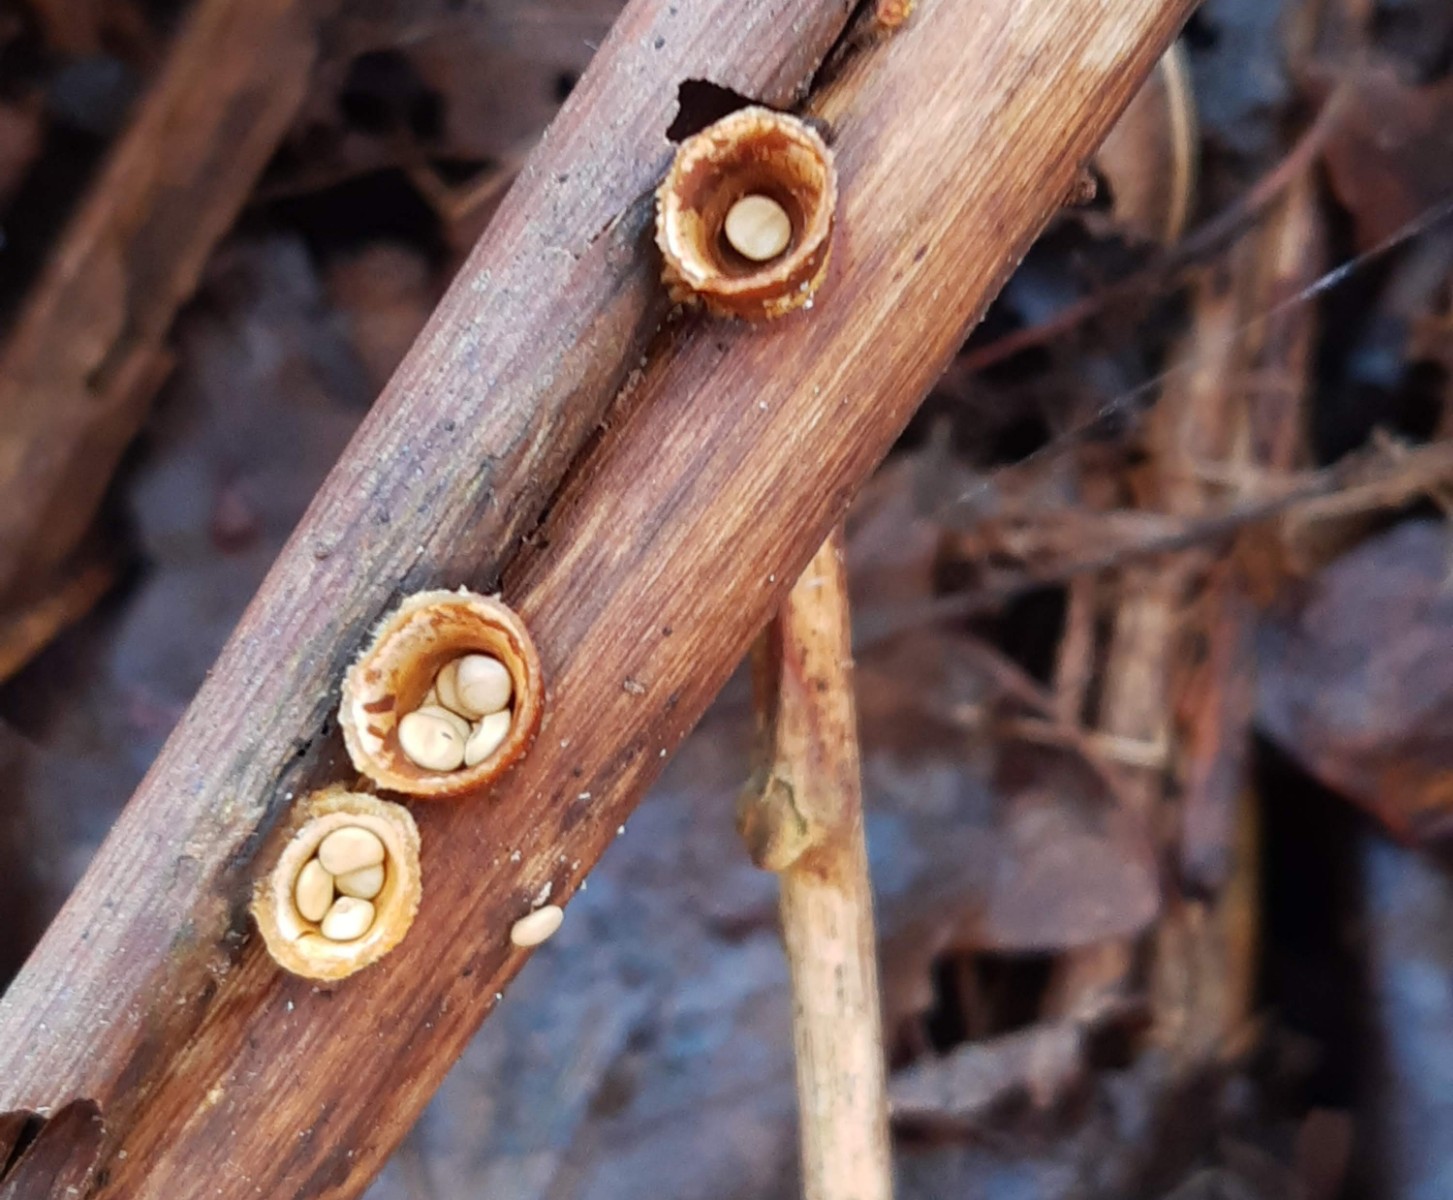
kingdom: Fungi
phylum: Basidiomycota
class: Agaricomycetes
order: Agaricales
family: Nidulariaceae
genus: Crucibulum
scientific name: Crucibulum crucibuliforme
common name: krukkesvamp
